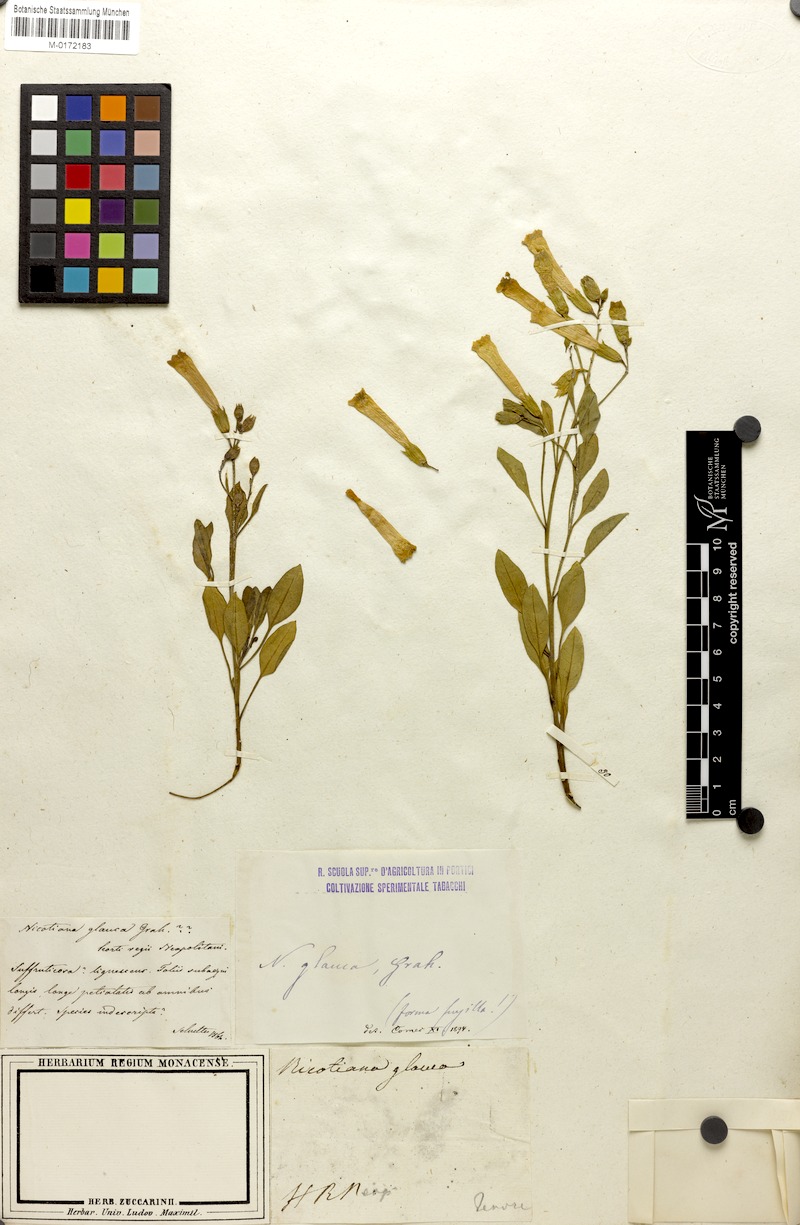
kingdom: Plantae
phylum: Tracheophyta
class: Magnoliopsida
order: Solanales
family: Solanaceae
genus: Nicotiana
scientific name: Nicotiana glauca
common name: Tree tobacco
